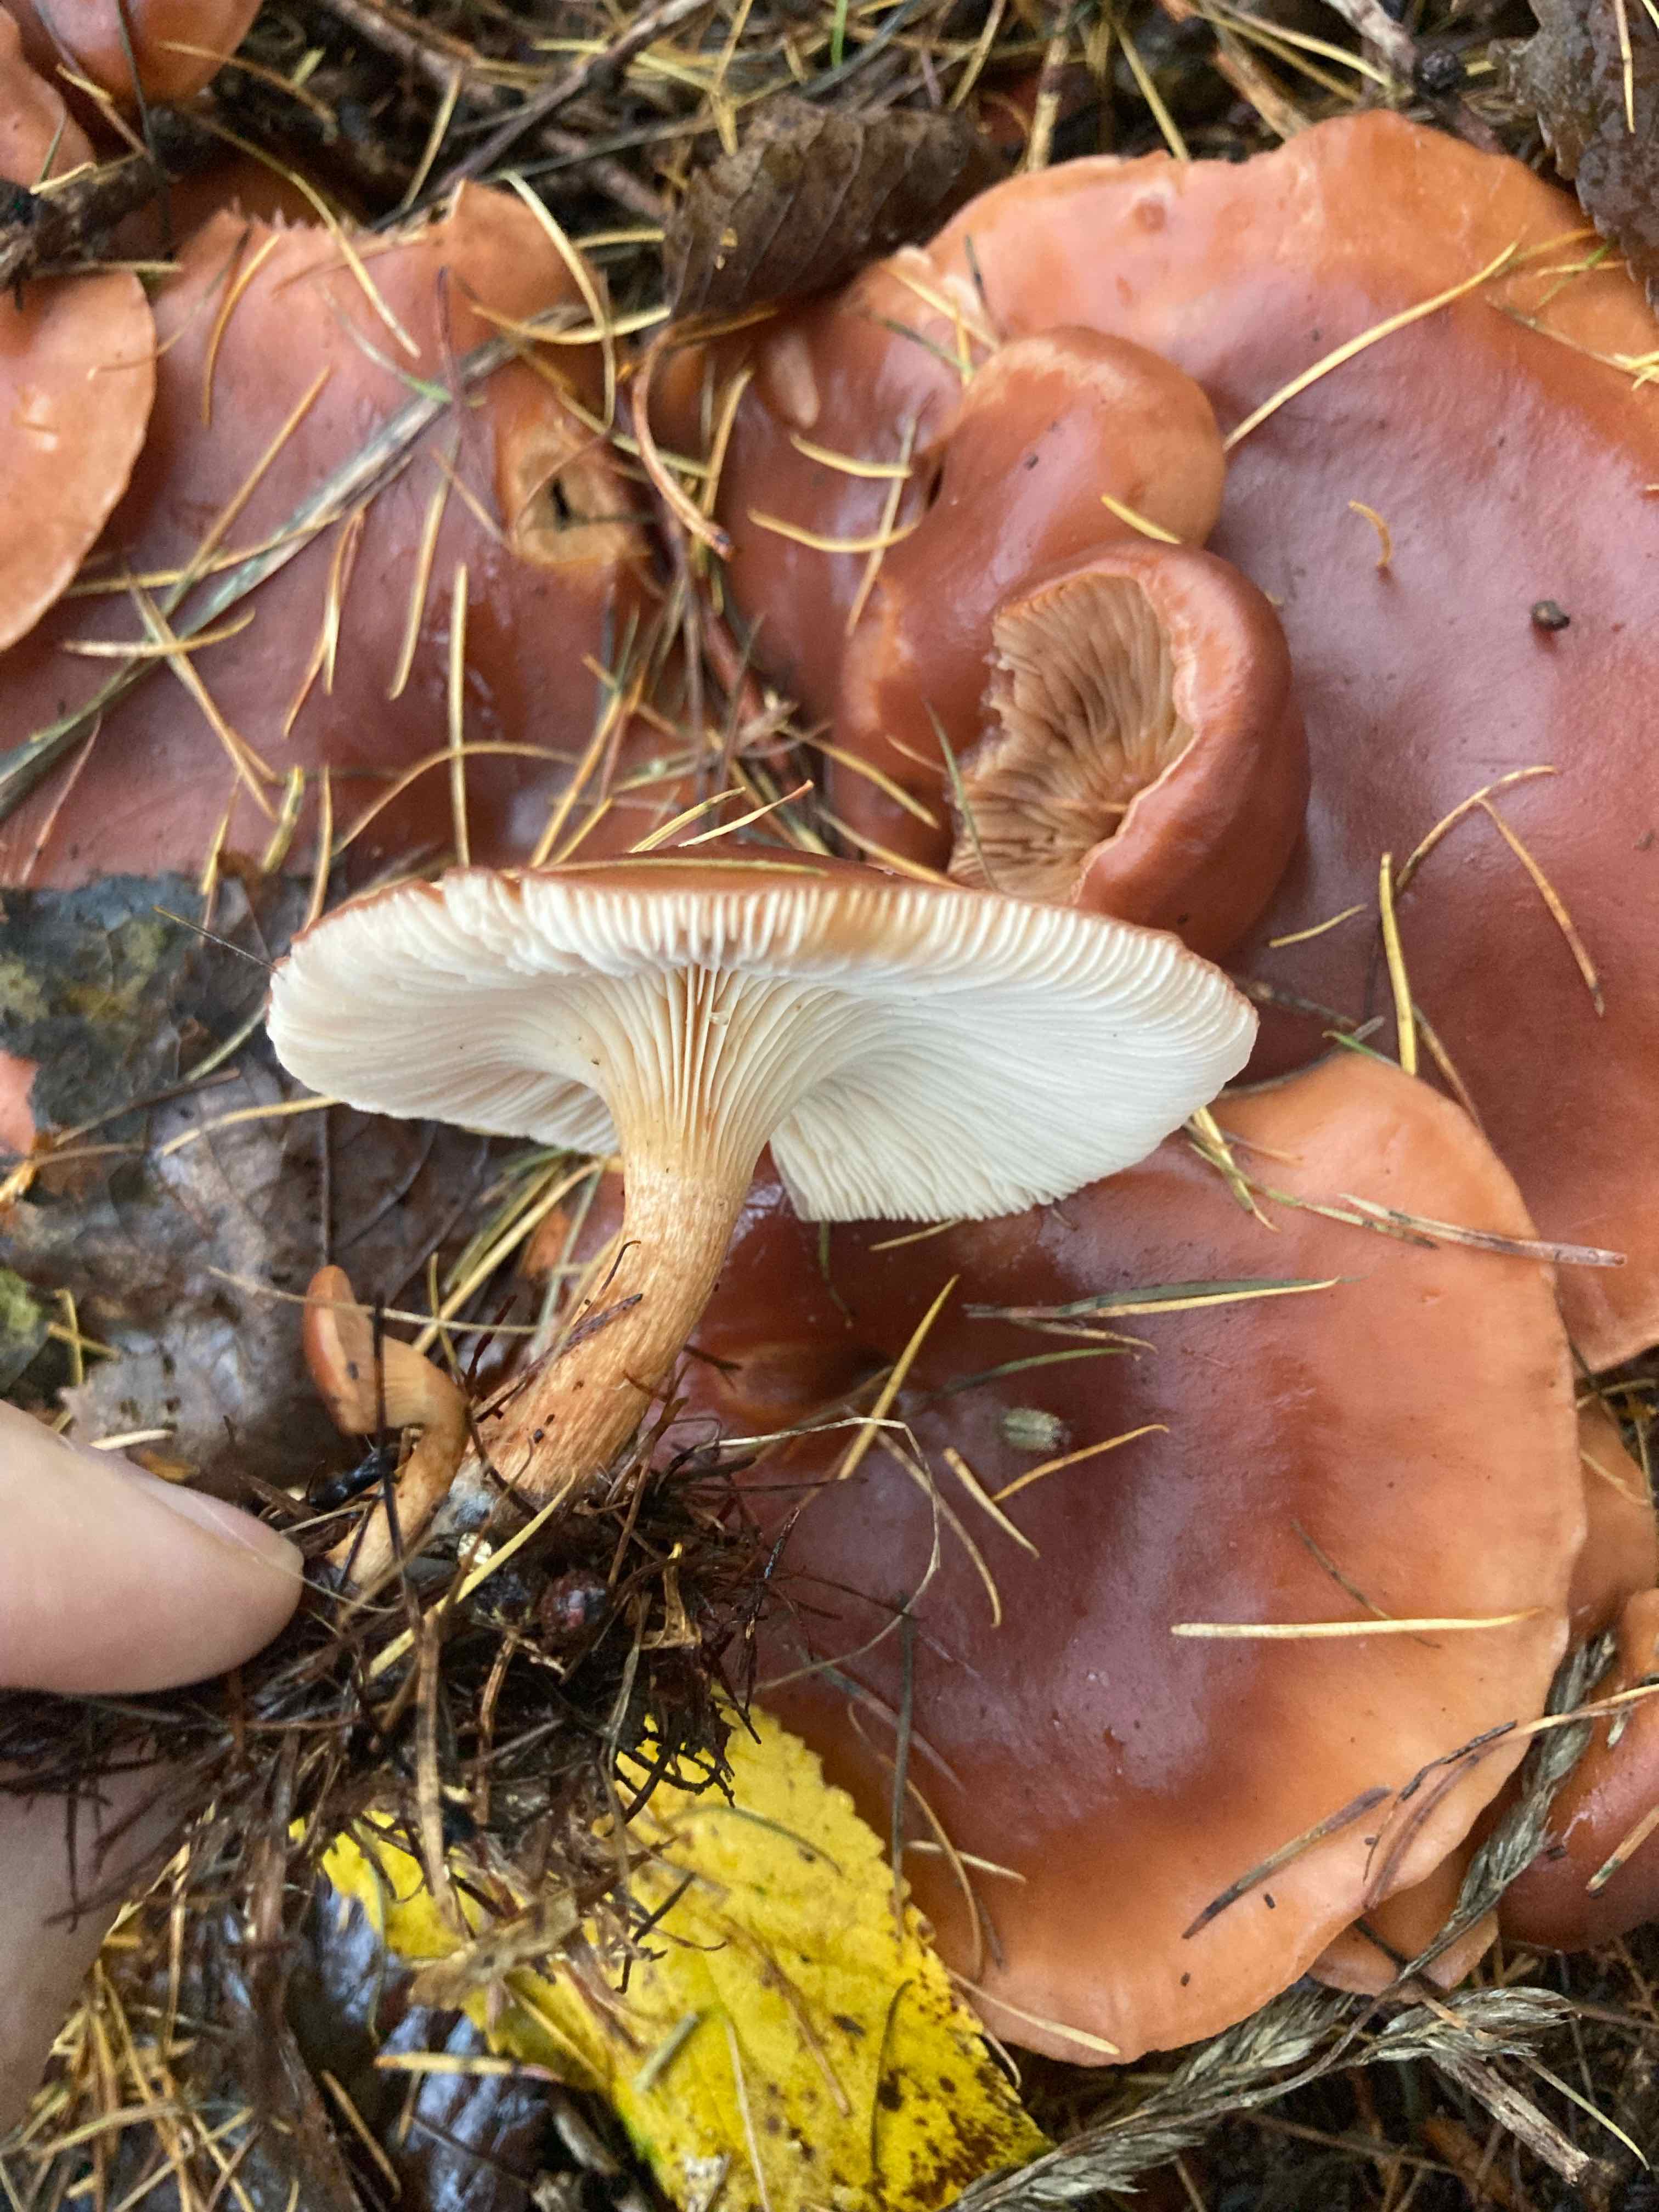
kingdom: Fungi
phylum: Basidiomycota
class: Agaricomycetes
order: Agaricales
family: Tricholomataceae
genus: Paralepista
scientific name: Paralepista flaccida
